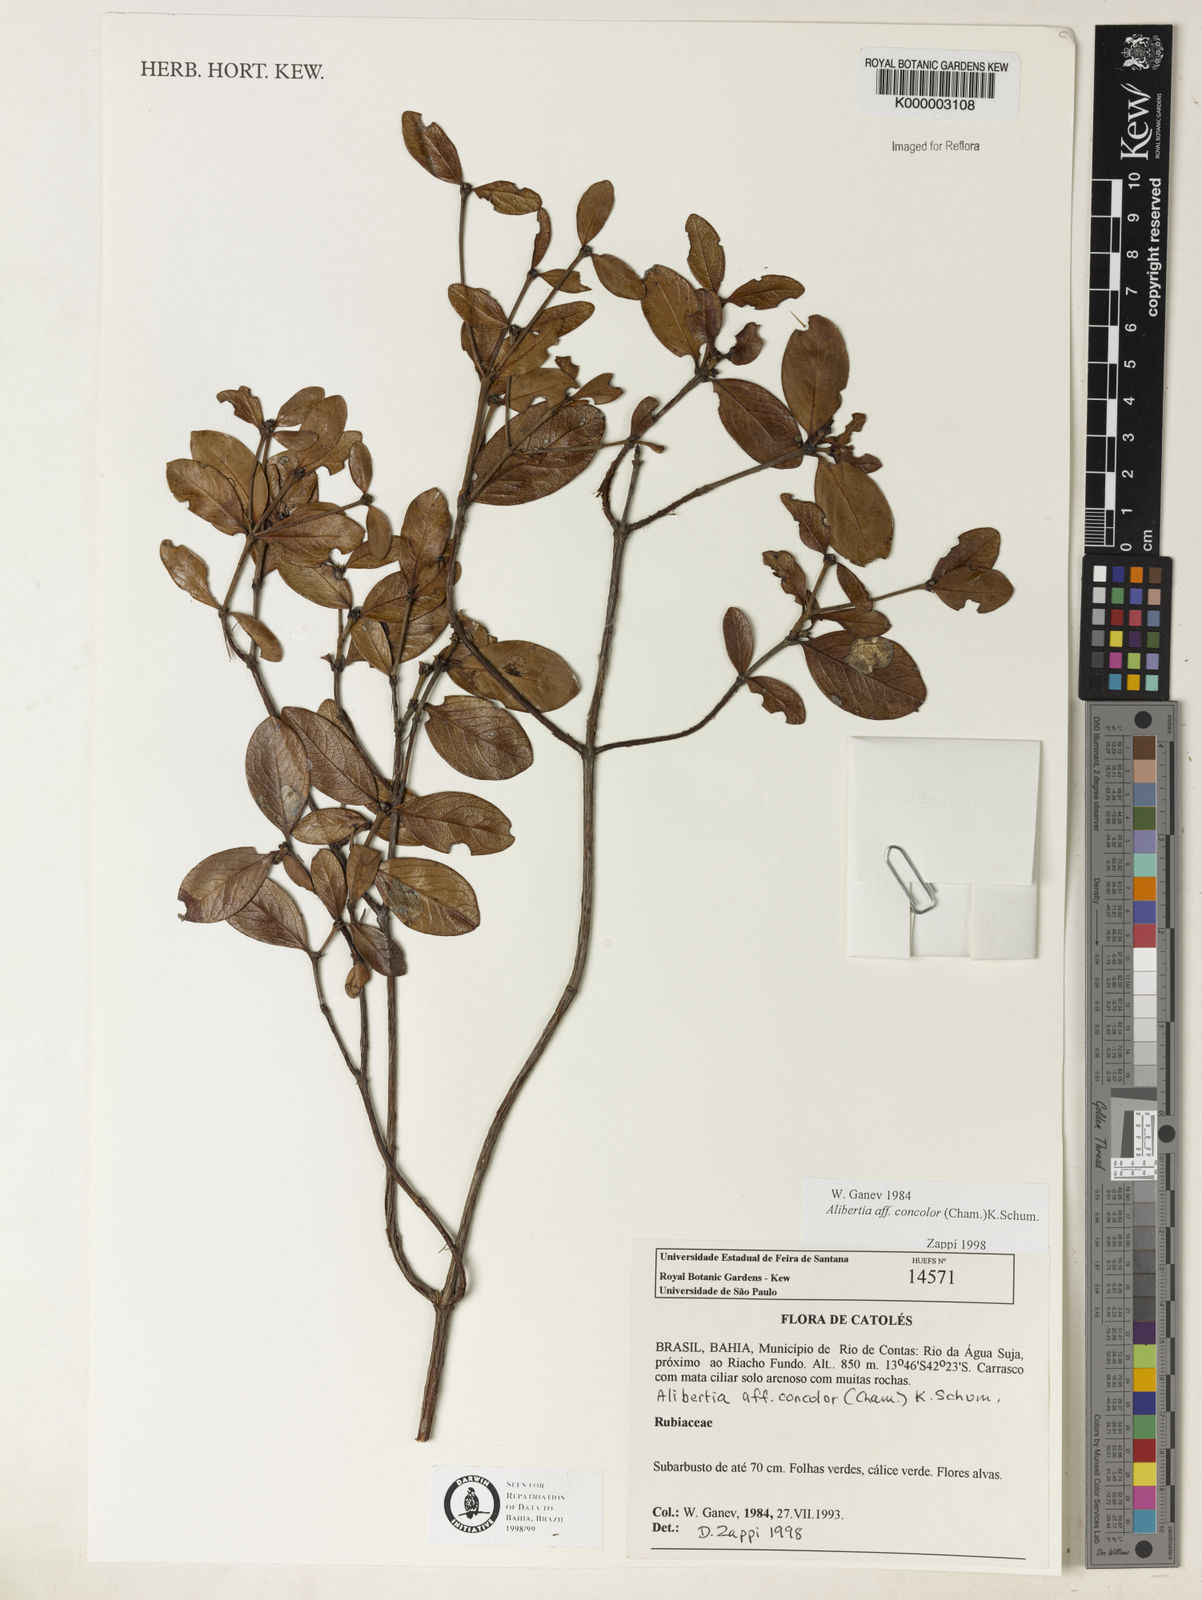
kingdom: Plantae
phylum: Tracheophyta
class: Magnoliopsida
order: Gentianales
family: Rubiaceae
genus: Cordiera
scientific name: Cordiera concolor
